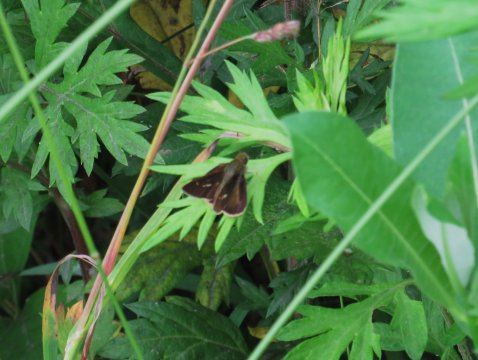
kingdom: Animalia
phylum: Arthropoda
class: Insecta
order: Lepidoptera
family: Hesperiidae
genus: Vernia
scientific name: Vernia verna
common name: Little Glassywing
